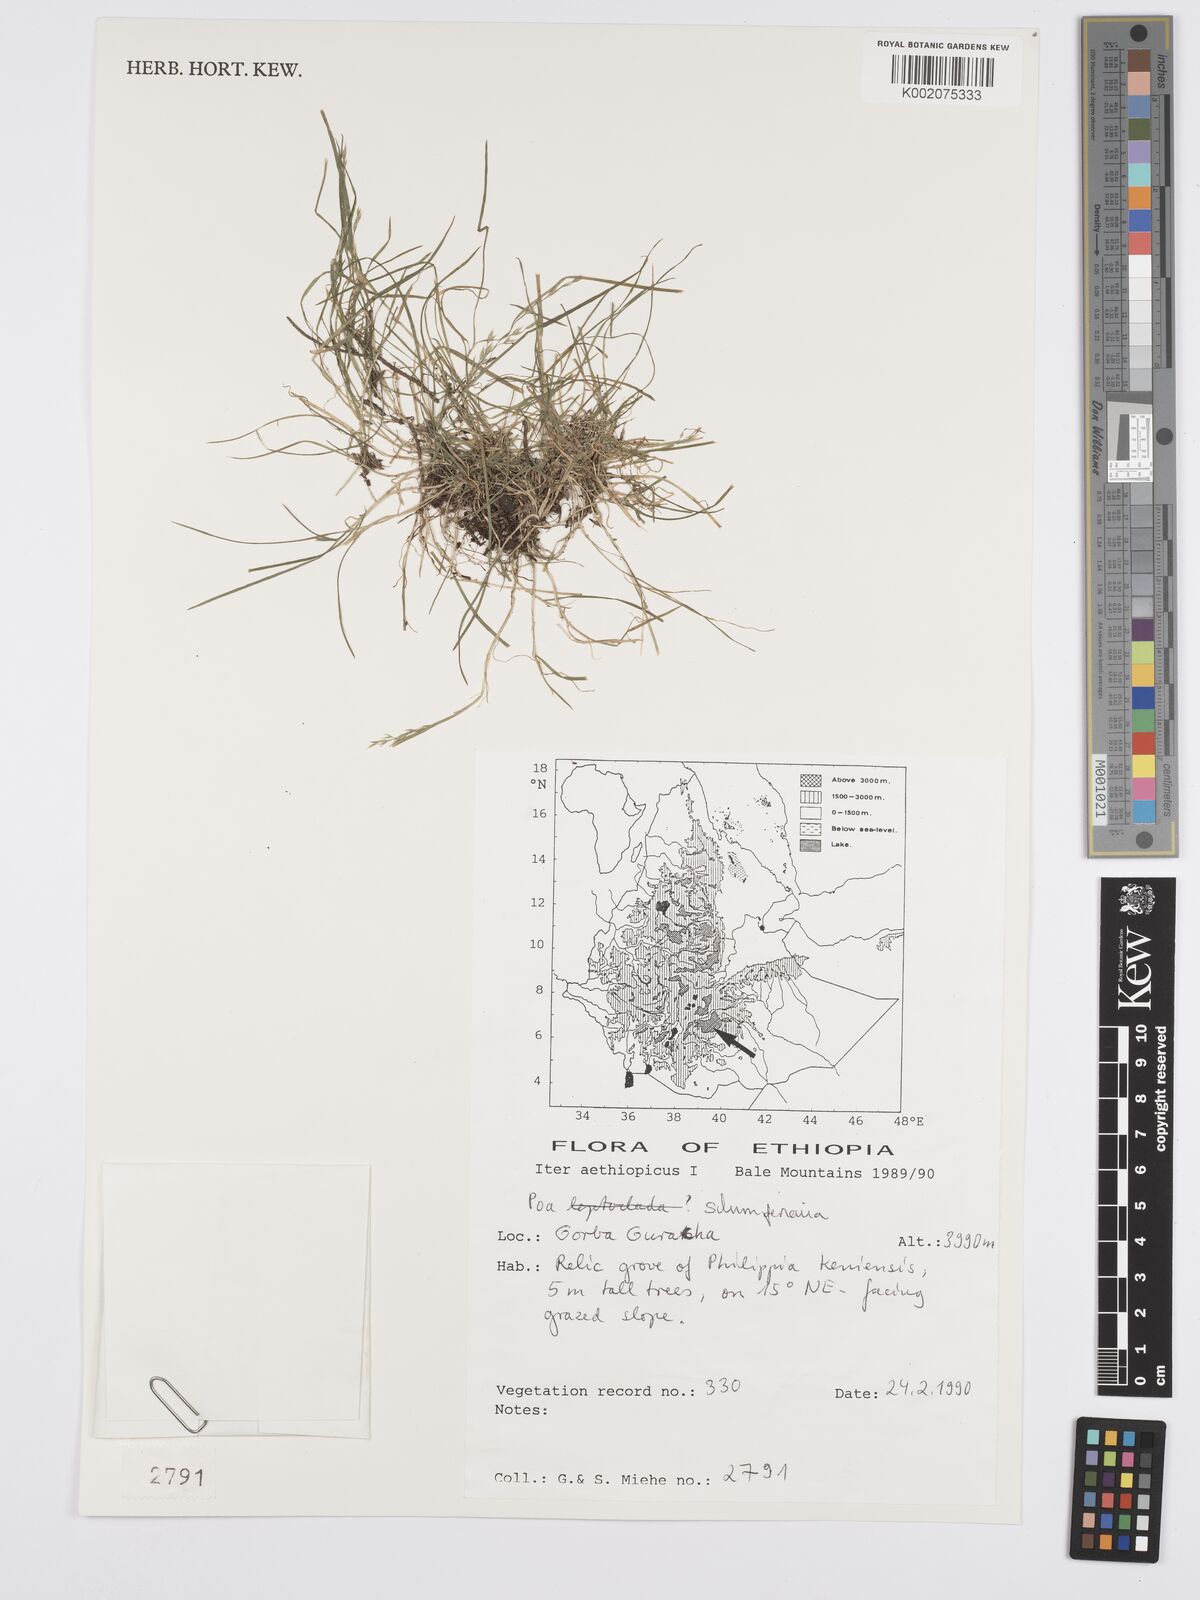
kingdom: Plantae
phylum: Tracheophyta
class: Liliopsida
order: Poales
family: Poaceae
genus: Poa
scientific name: Poa schimperiana
